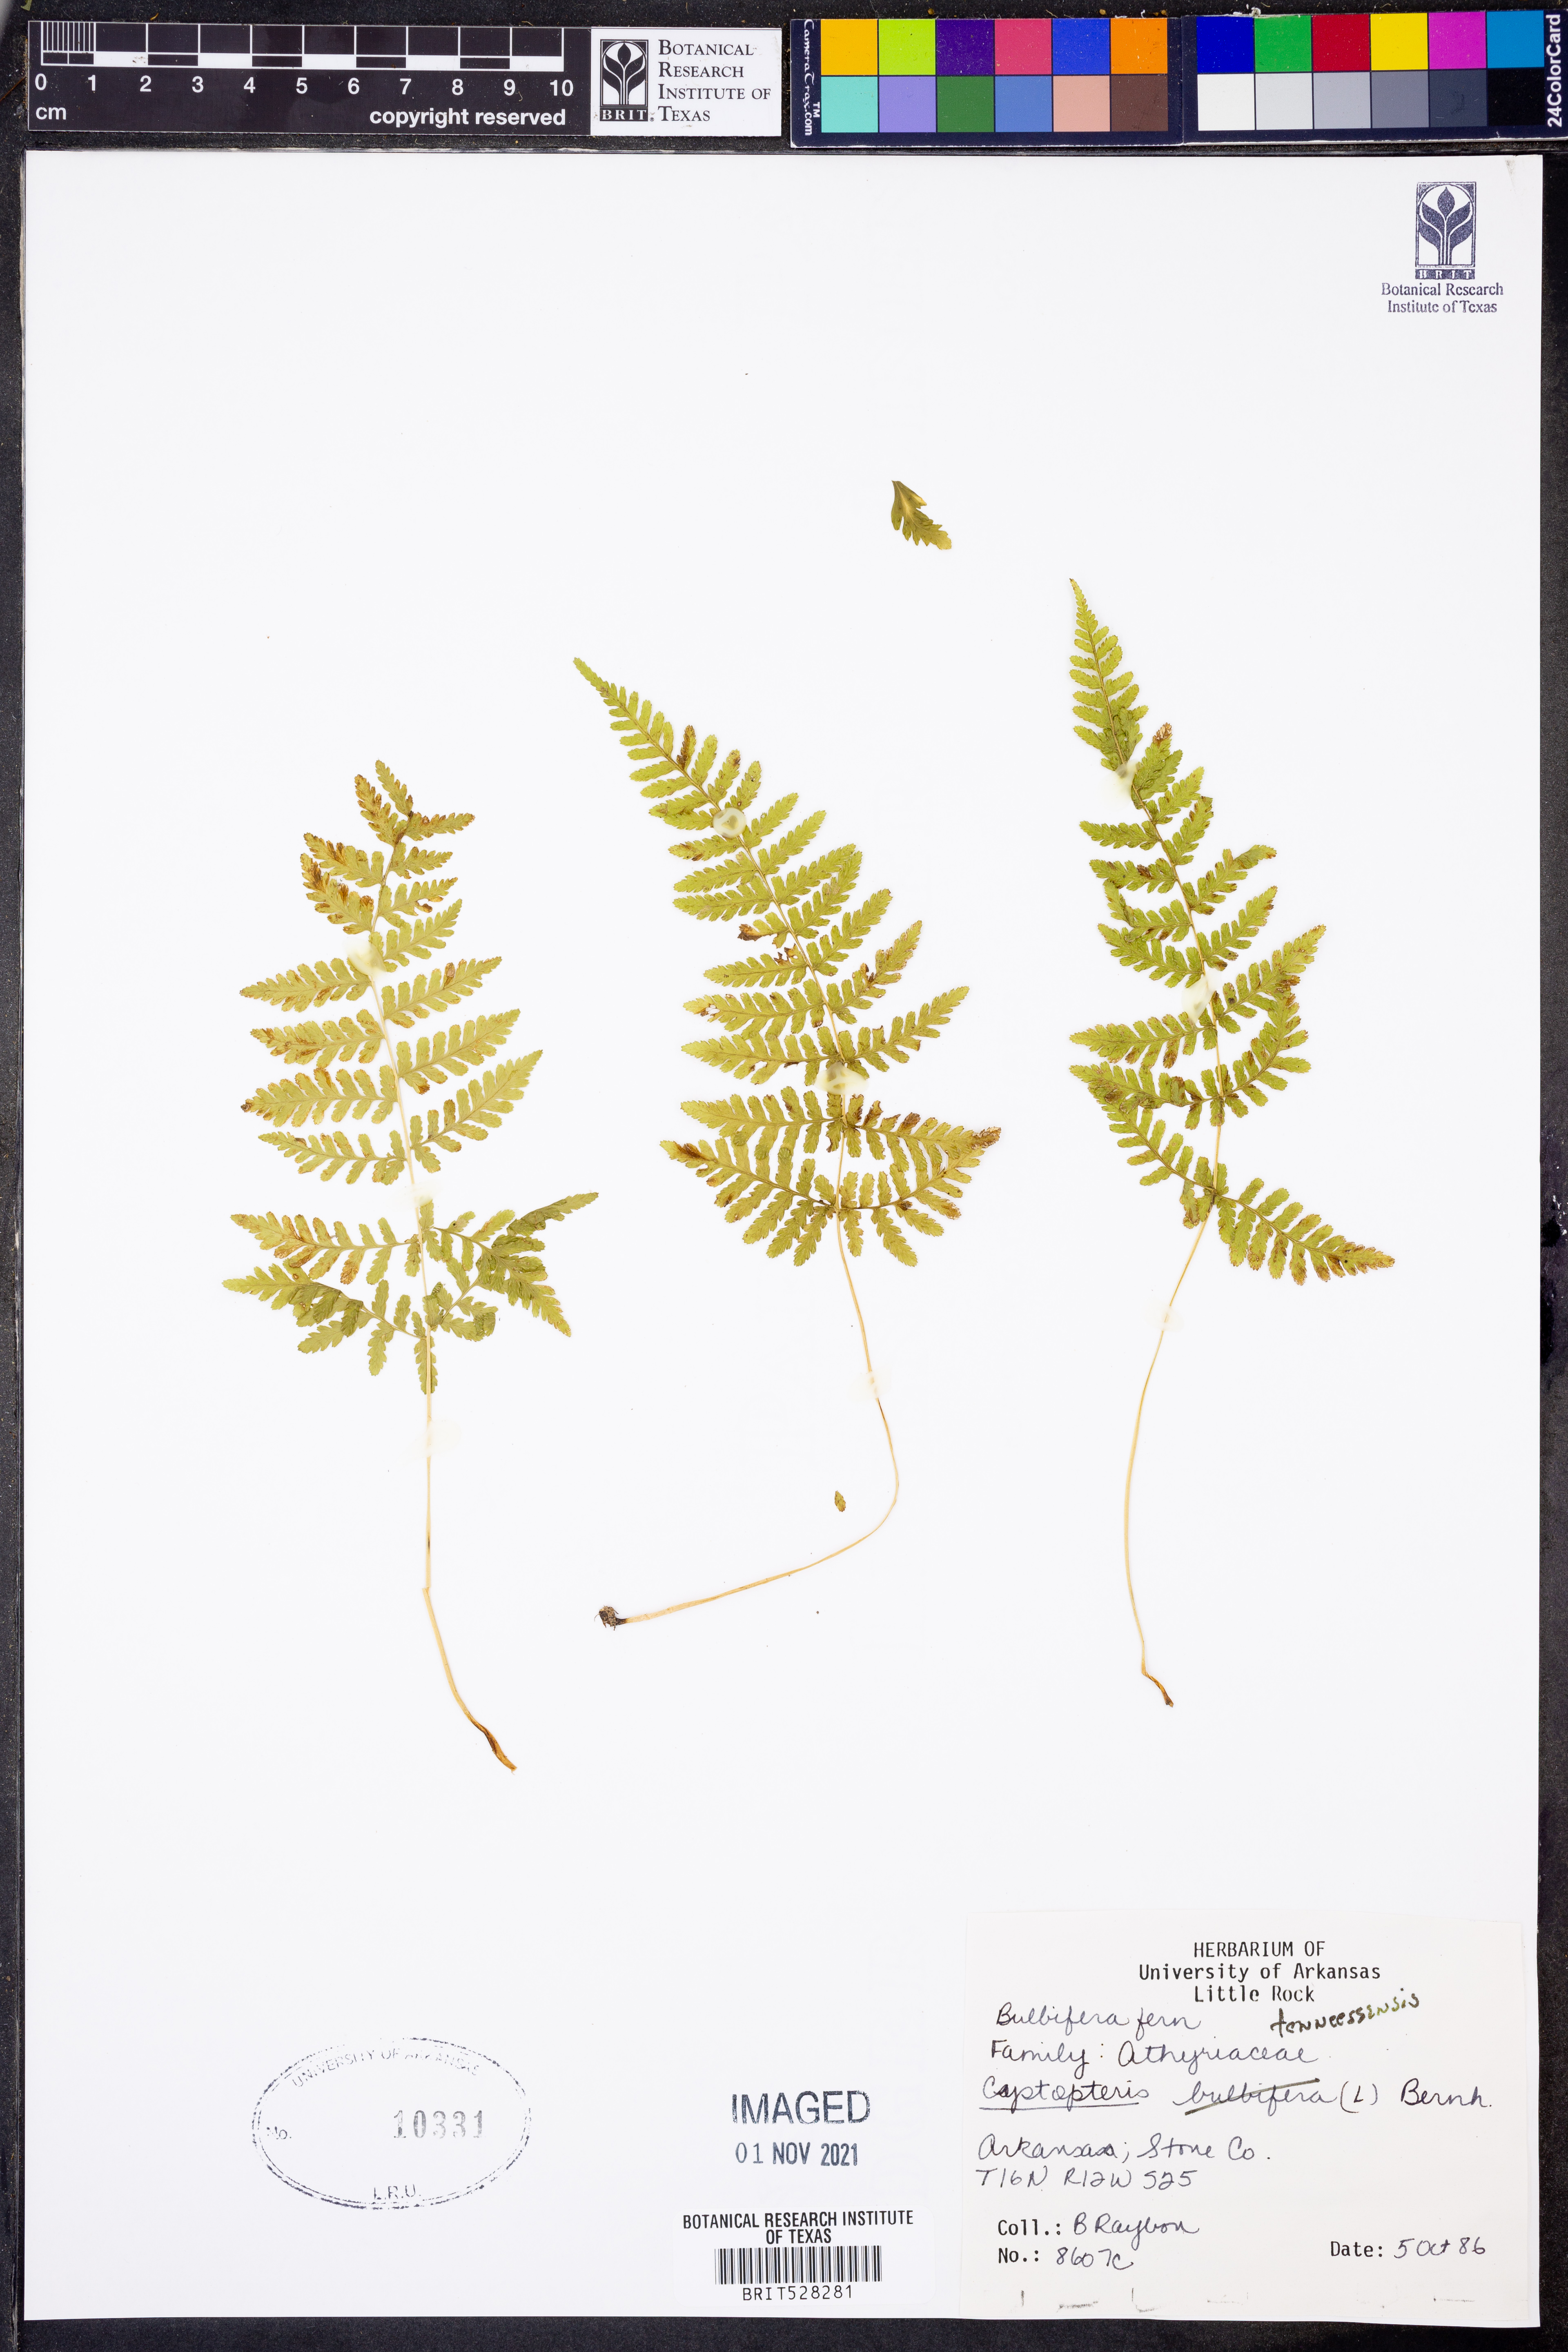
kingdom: Plantae
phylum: Tracheophyta
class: Polypodiopsida
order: Polypodiales
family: Cystopteridaceae
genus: Cystopteris
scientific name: Cystopteris tennesseensis
